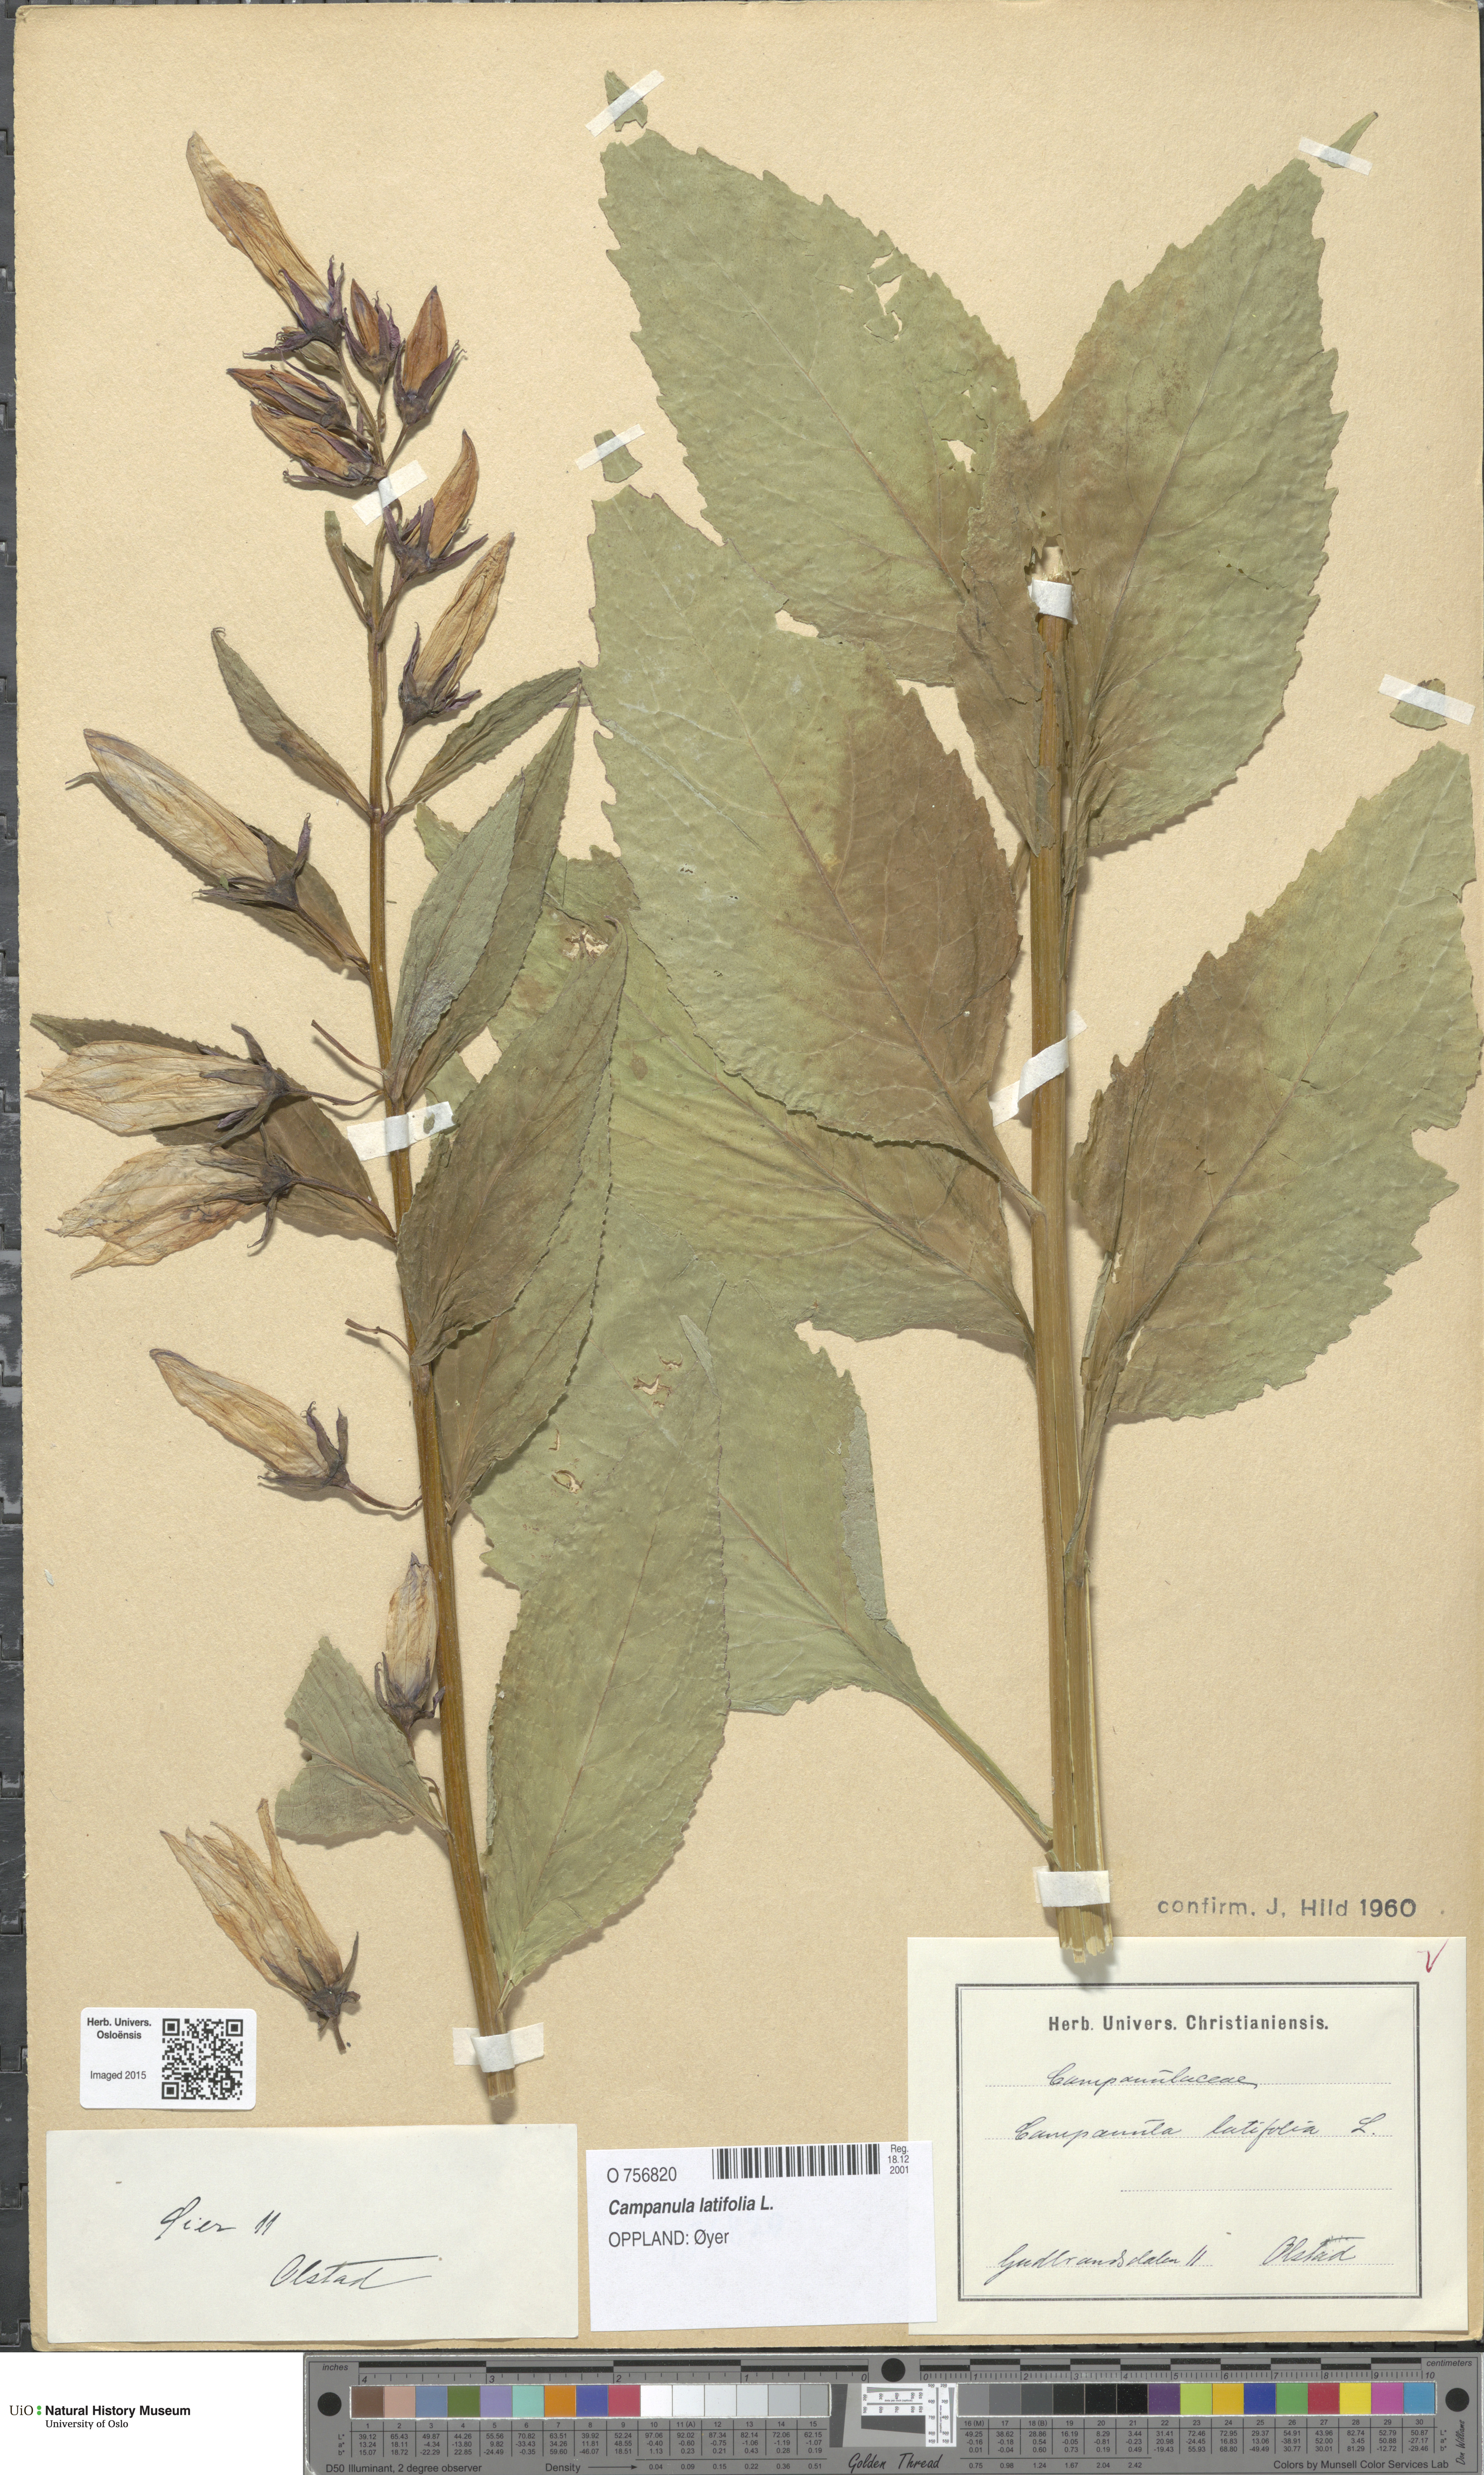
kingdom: Plantae
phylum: Tracheophyta
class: Magnoliopsida
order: Asterales
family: Campanulaceae
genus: Campanula
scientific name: Campanula latifolia
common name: Giant bellflower
